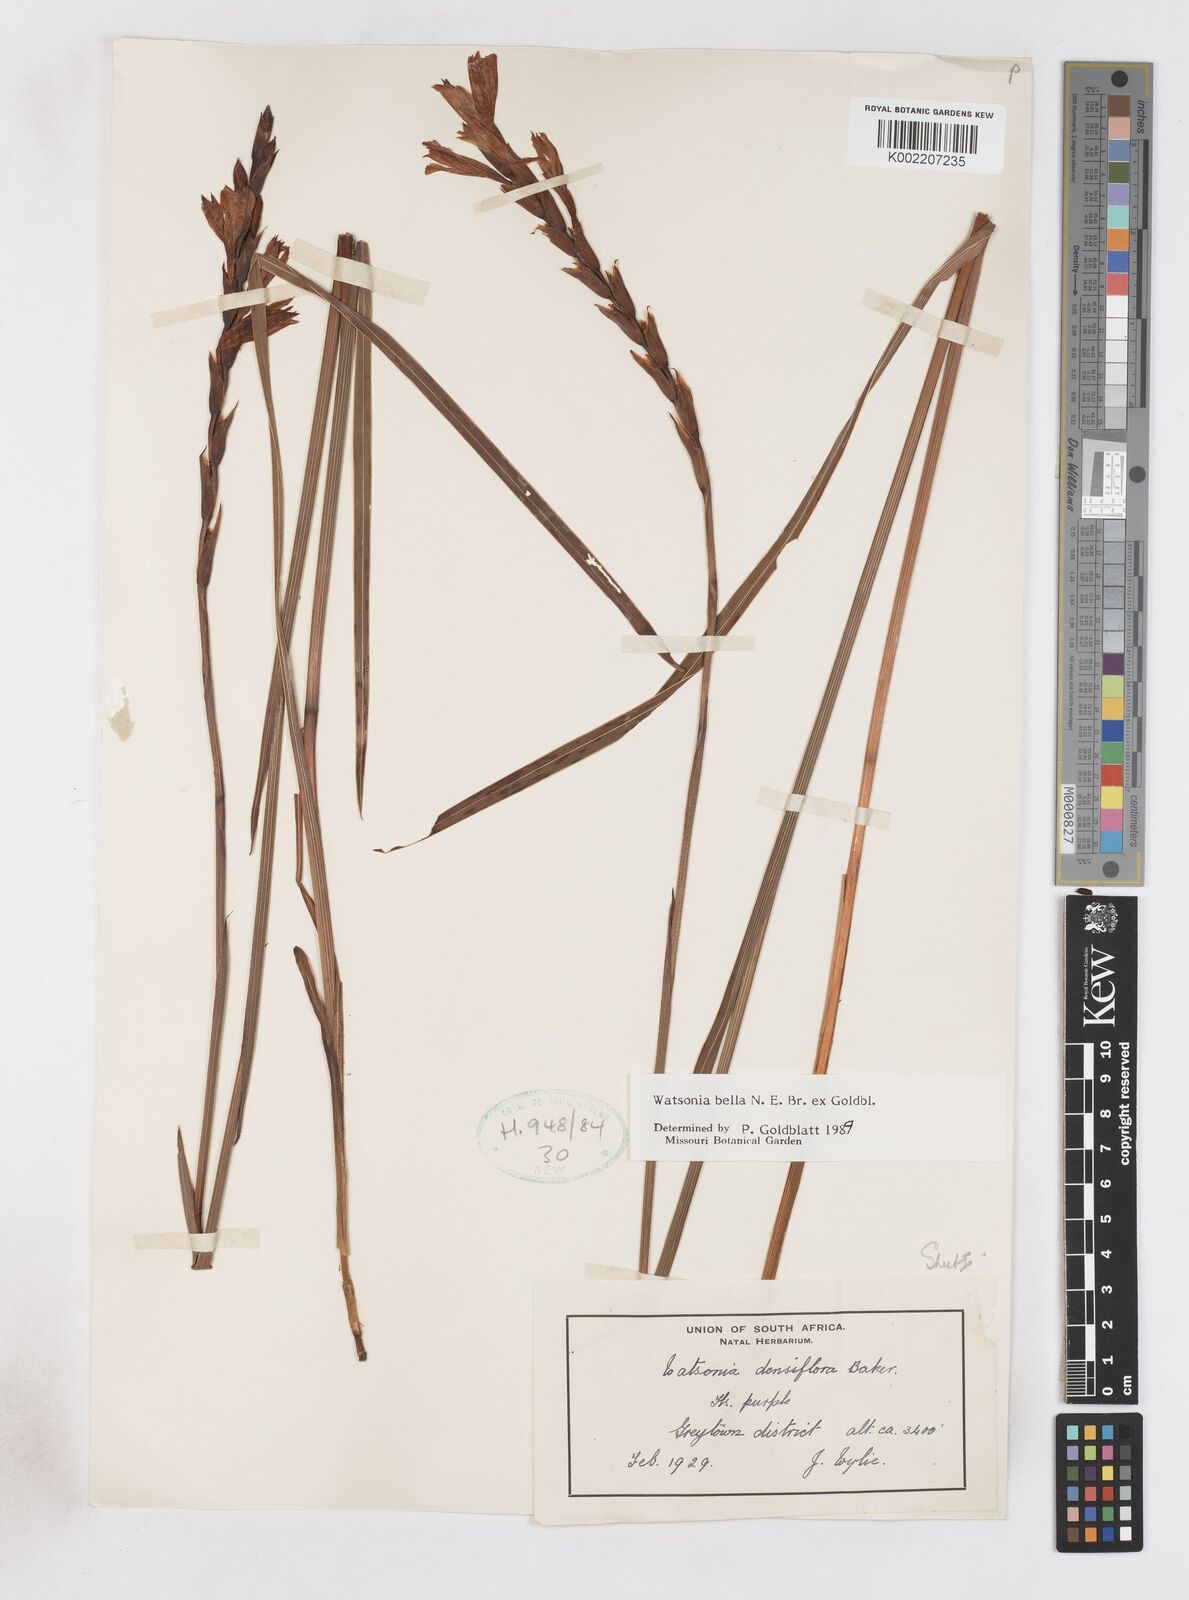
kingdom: Plantae
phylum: Tracheophyta
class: Liliopsida
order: Asparagales
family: Iridaceae
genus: Watsonia
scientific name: Watsonia bella
